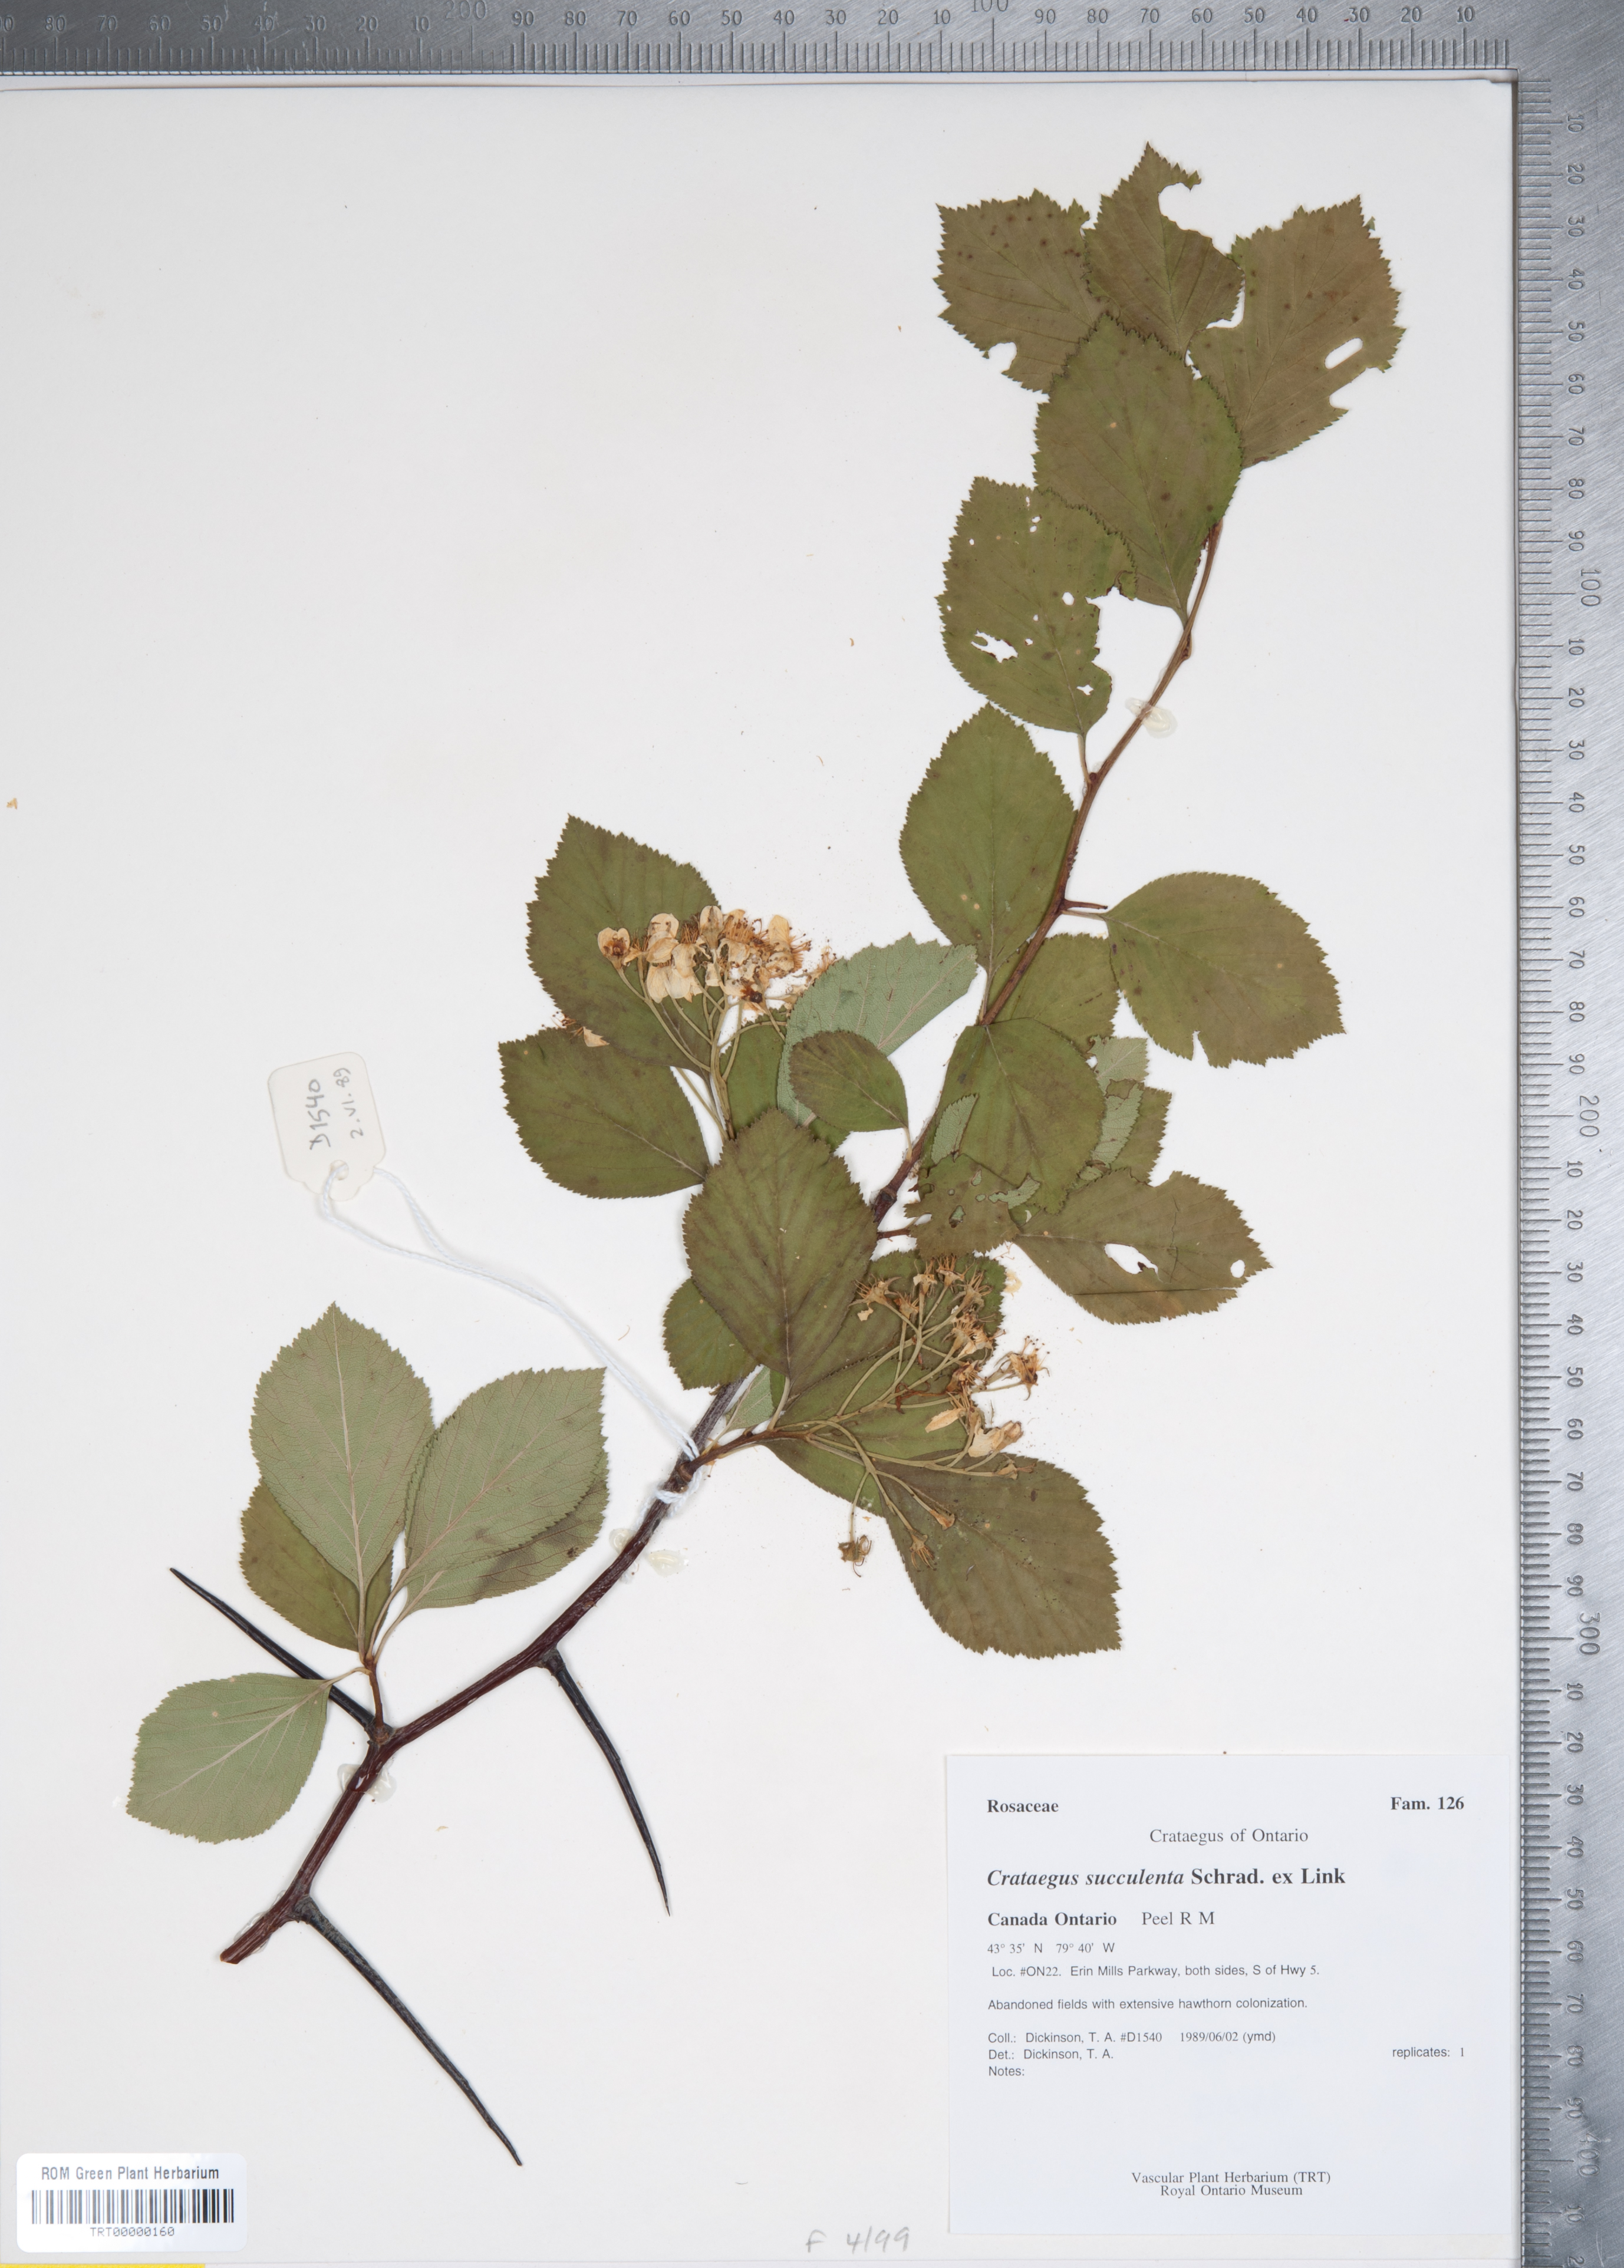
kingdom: Plantae
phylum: Tracheophyta
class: Magnoliopsida
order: Rosales
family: Rosaceae
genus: Crataegus
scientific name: Crataegus succulenta
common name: Fleshy hawthorn
